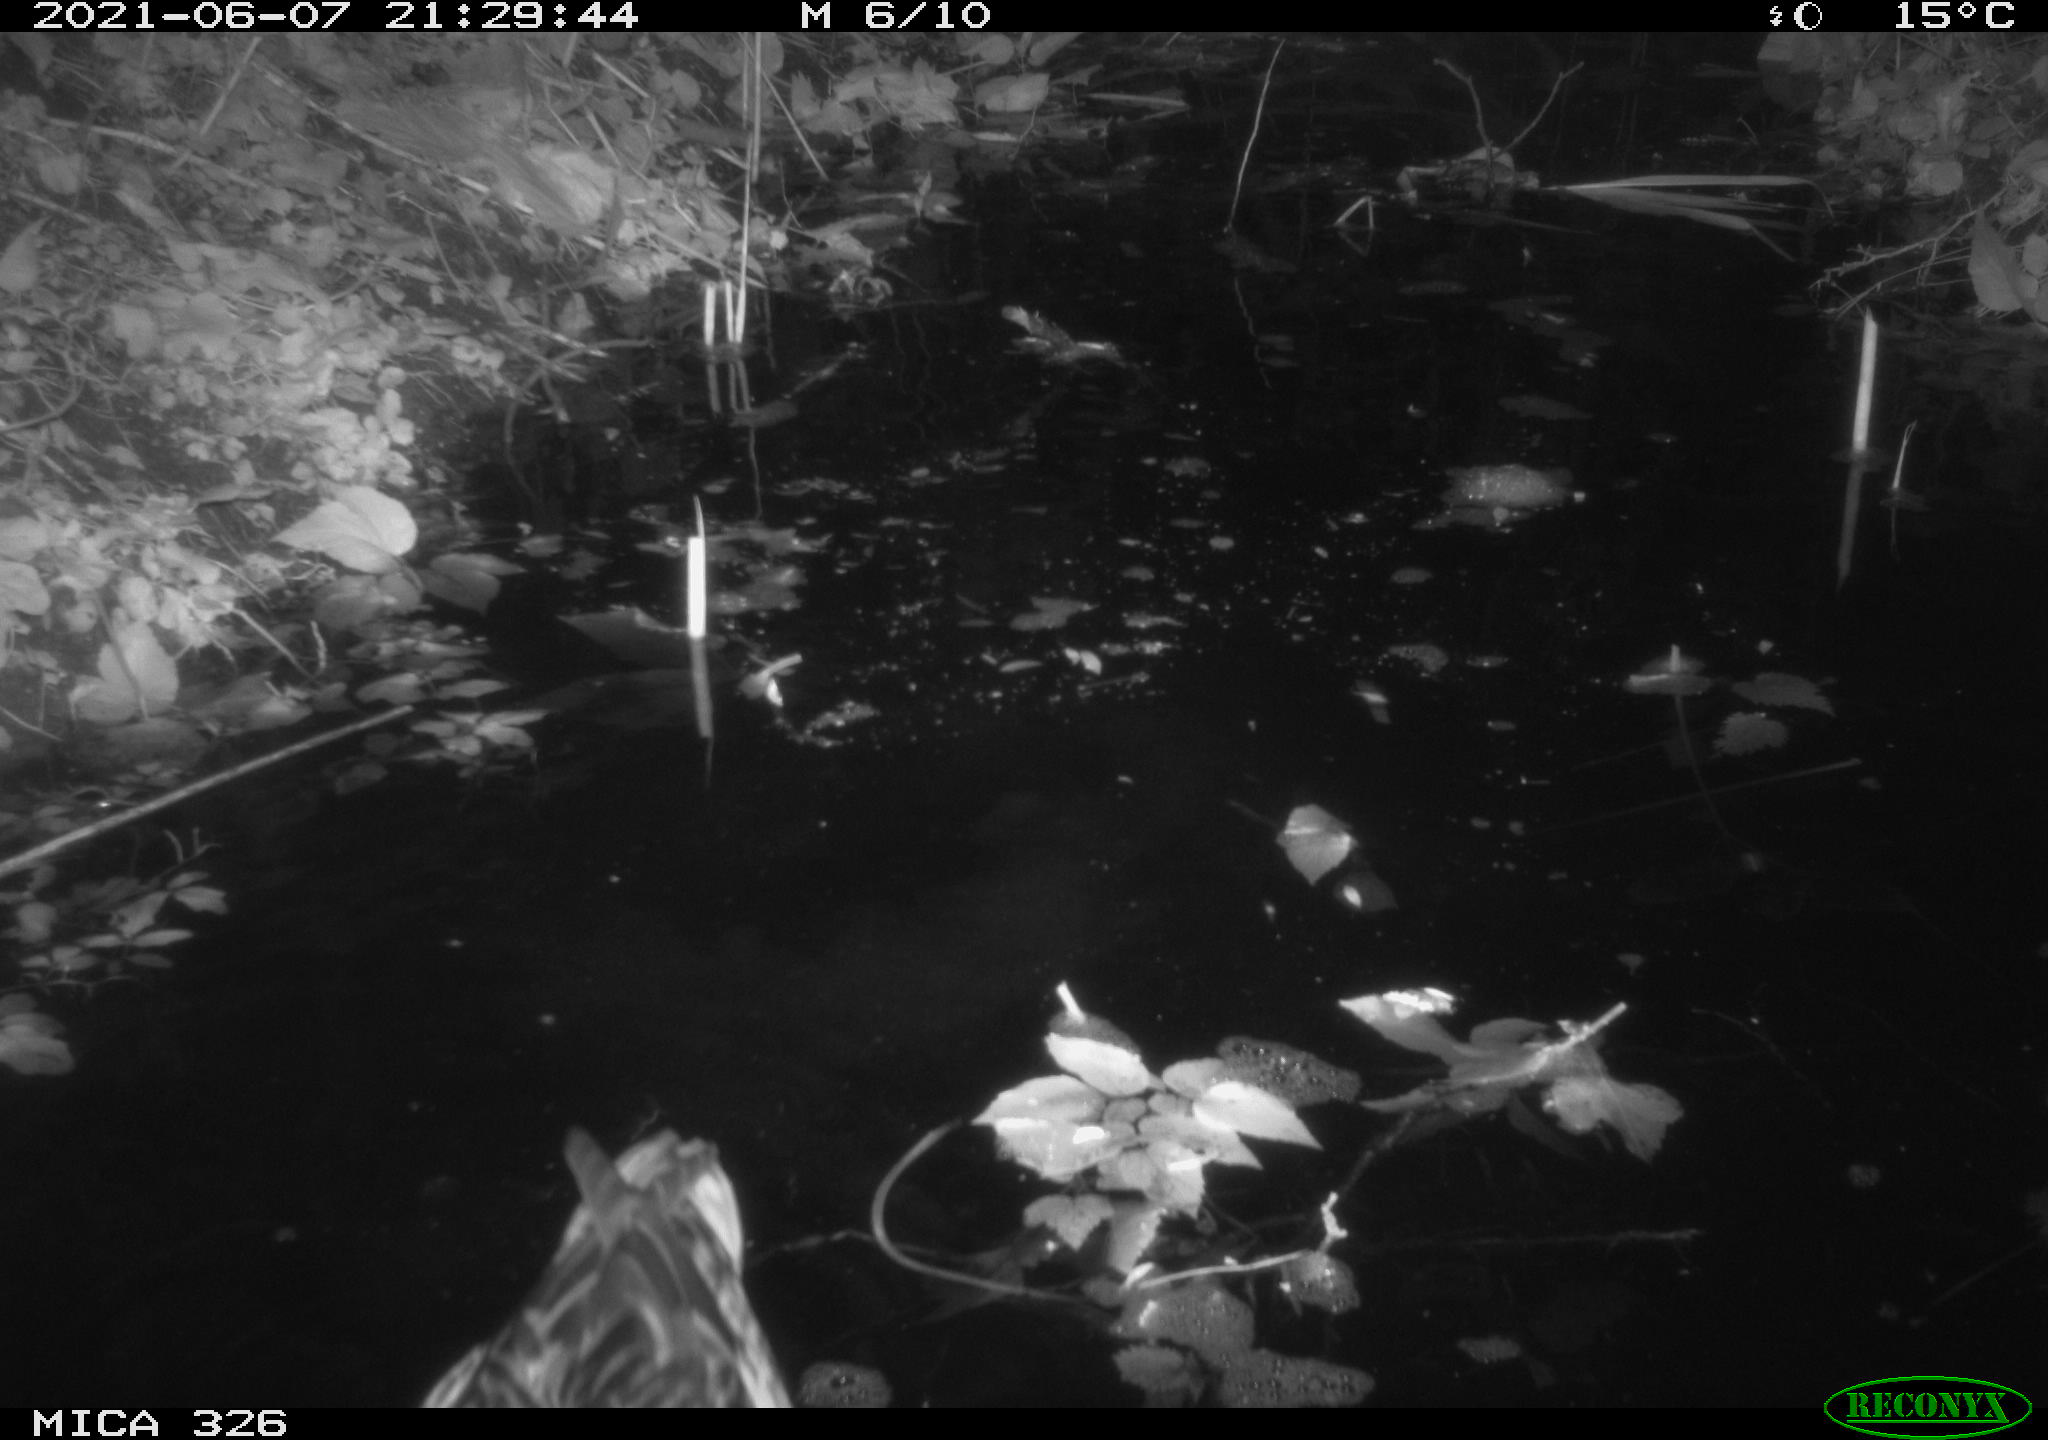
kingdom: Animalia
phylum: Chordata
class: Aves
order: Anseriformes
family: Anatidae
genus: Anas
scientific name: Anas platyrhynchos
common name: Mallard
